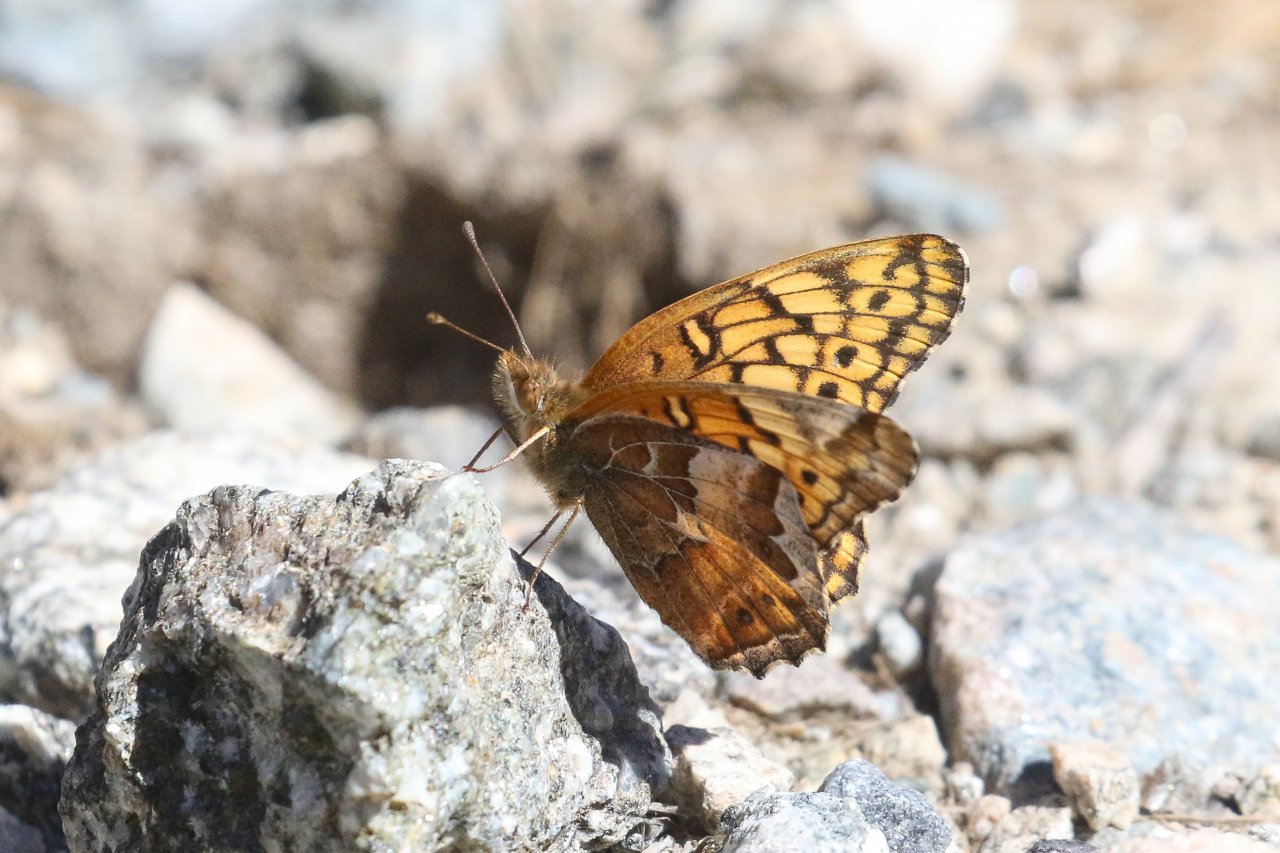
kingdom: Animalia
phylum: Arthropoda
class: Insecta
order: Lepidoptera
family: Nymphalidae
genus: Euptoieta
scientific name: Euptoieta claudia
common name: Variegated Fritillary
